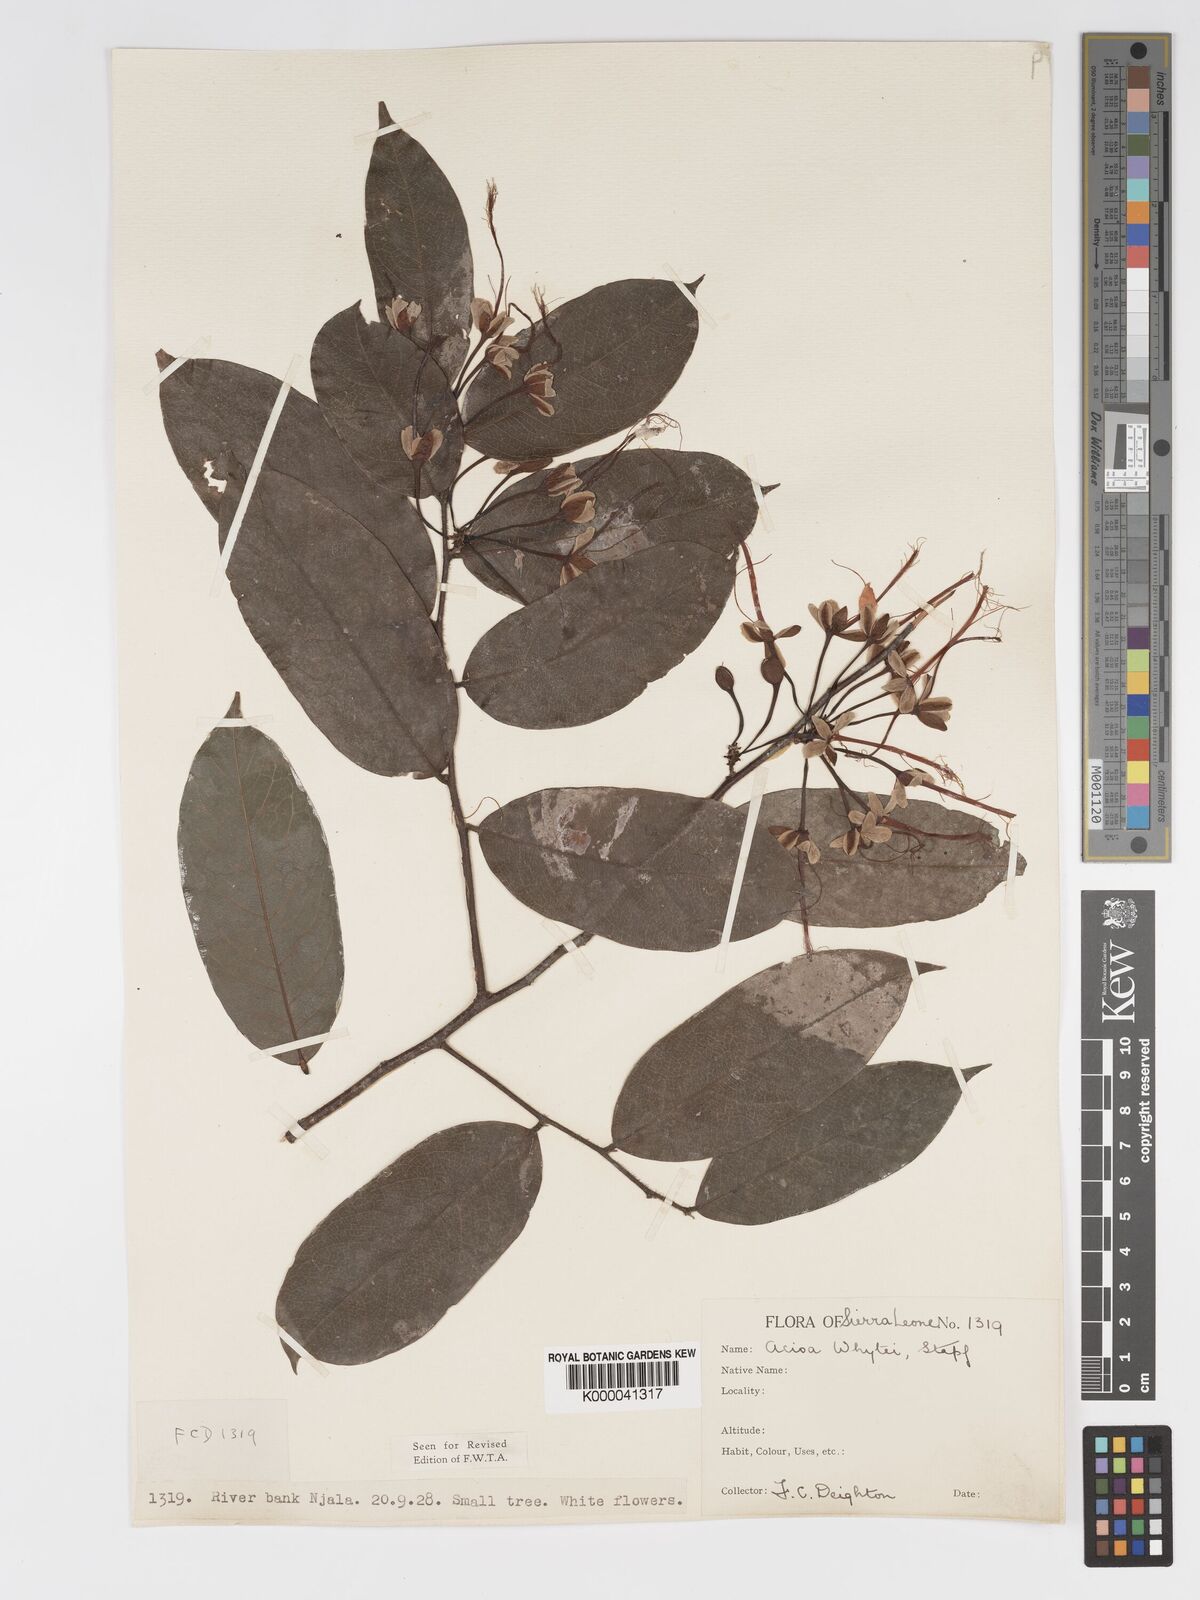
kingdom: Plantae
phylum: Tracheophyta
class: Magnoliopsida
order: Malpighiales
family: Chrysobalanaceae
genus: Dactyladenia
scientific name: Dactyladenia whytei
